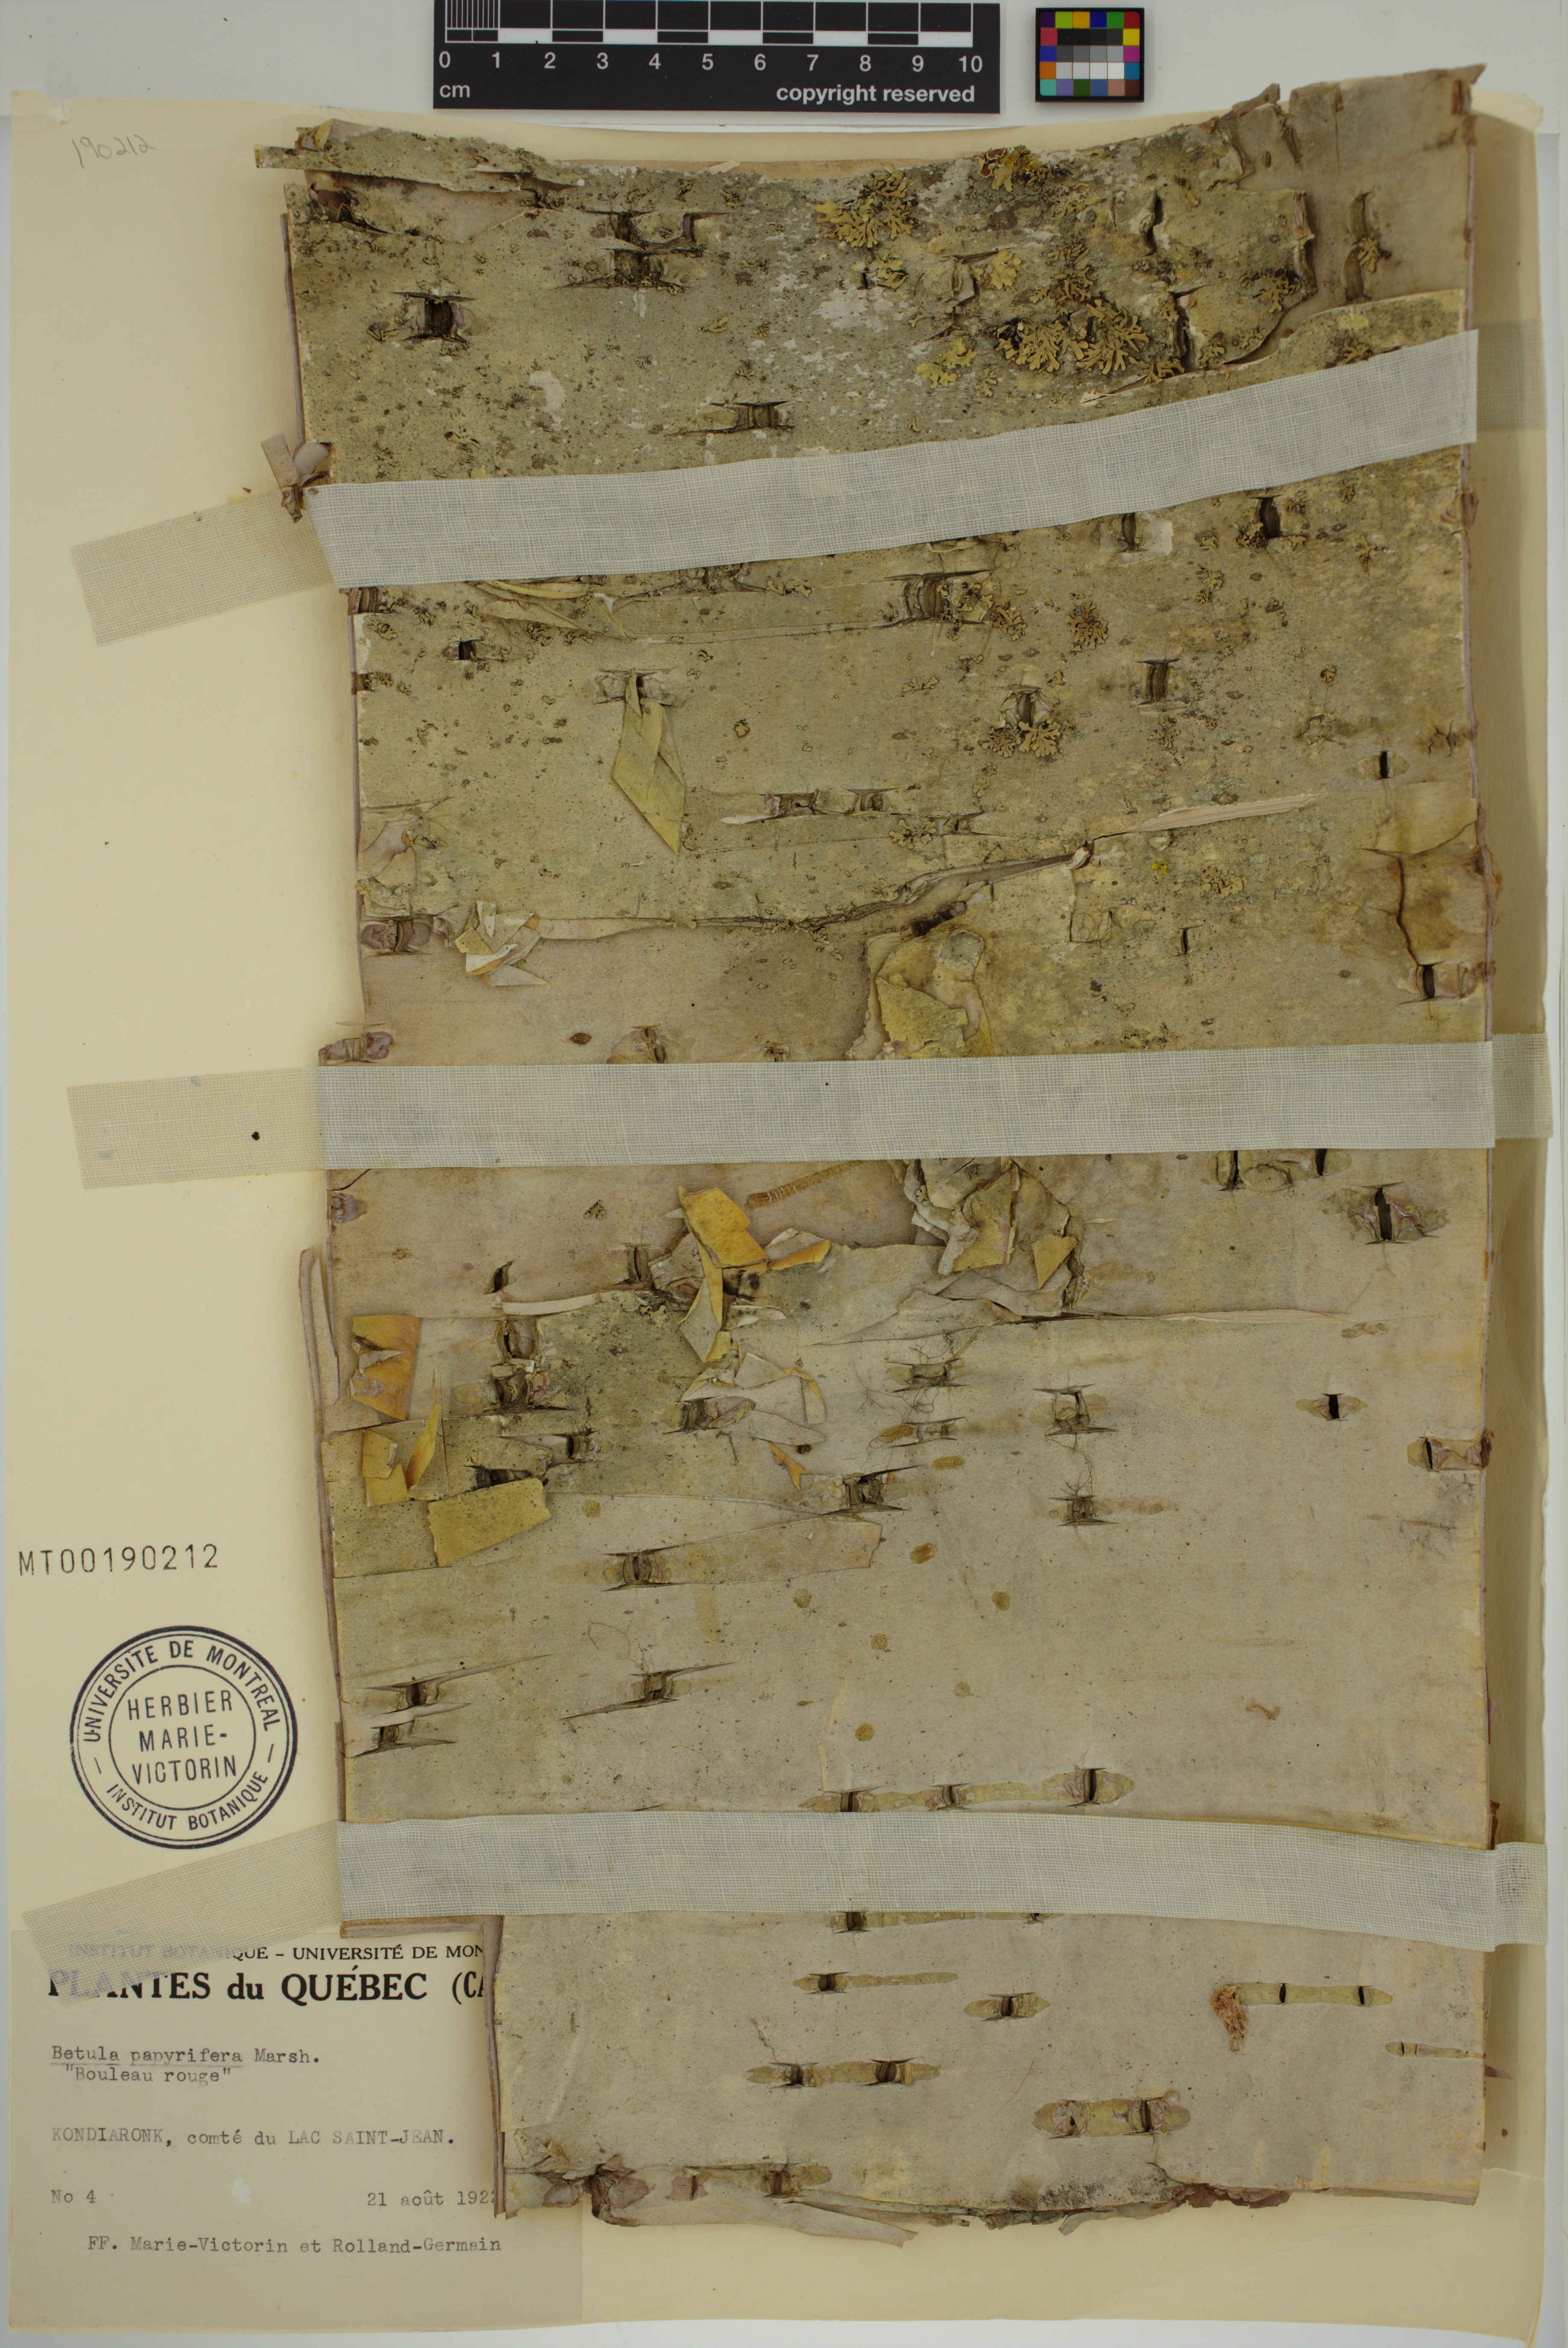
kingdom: Plantae
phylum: Tracheophyta
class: Magnoliopsida
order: Fagales
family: Betulaceae
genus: Betula
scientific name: Betula papyrifera
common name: Paper birch
